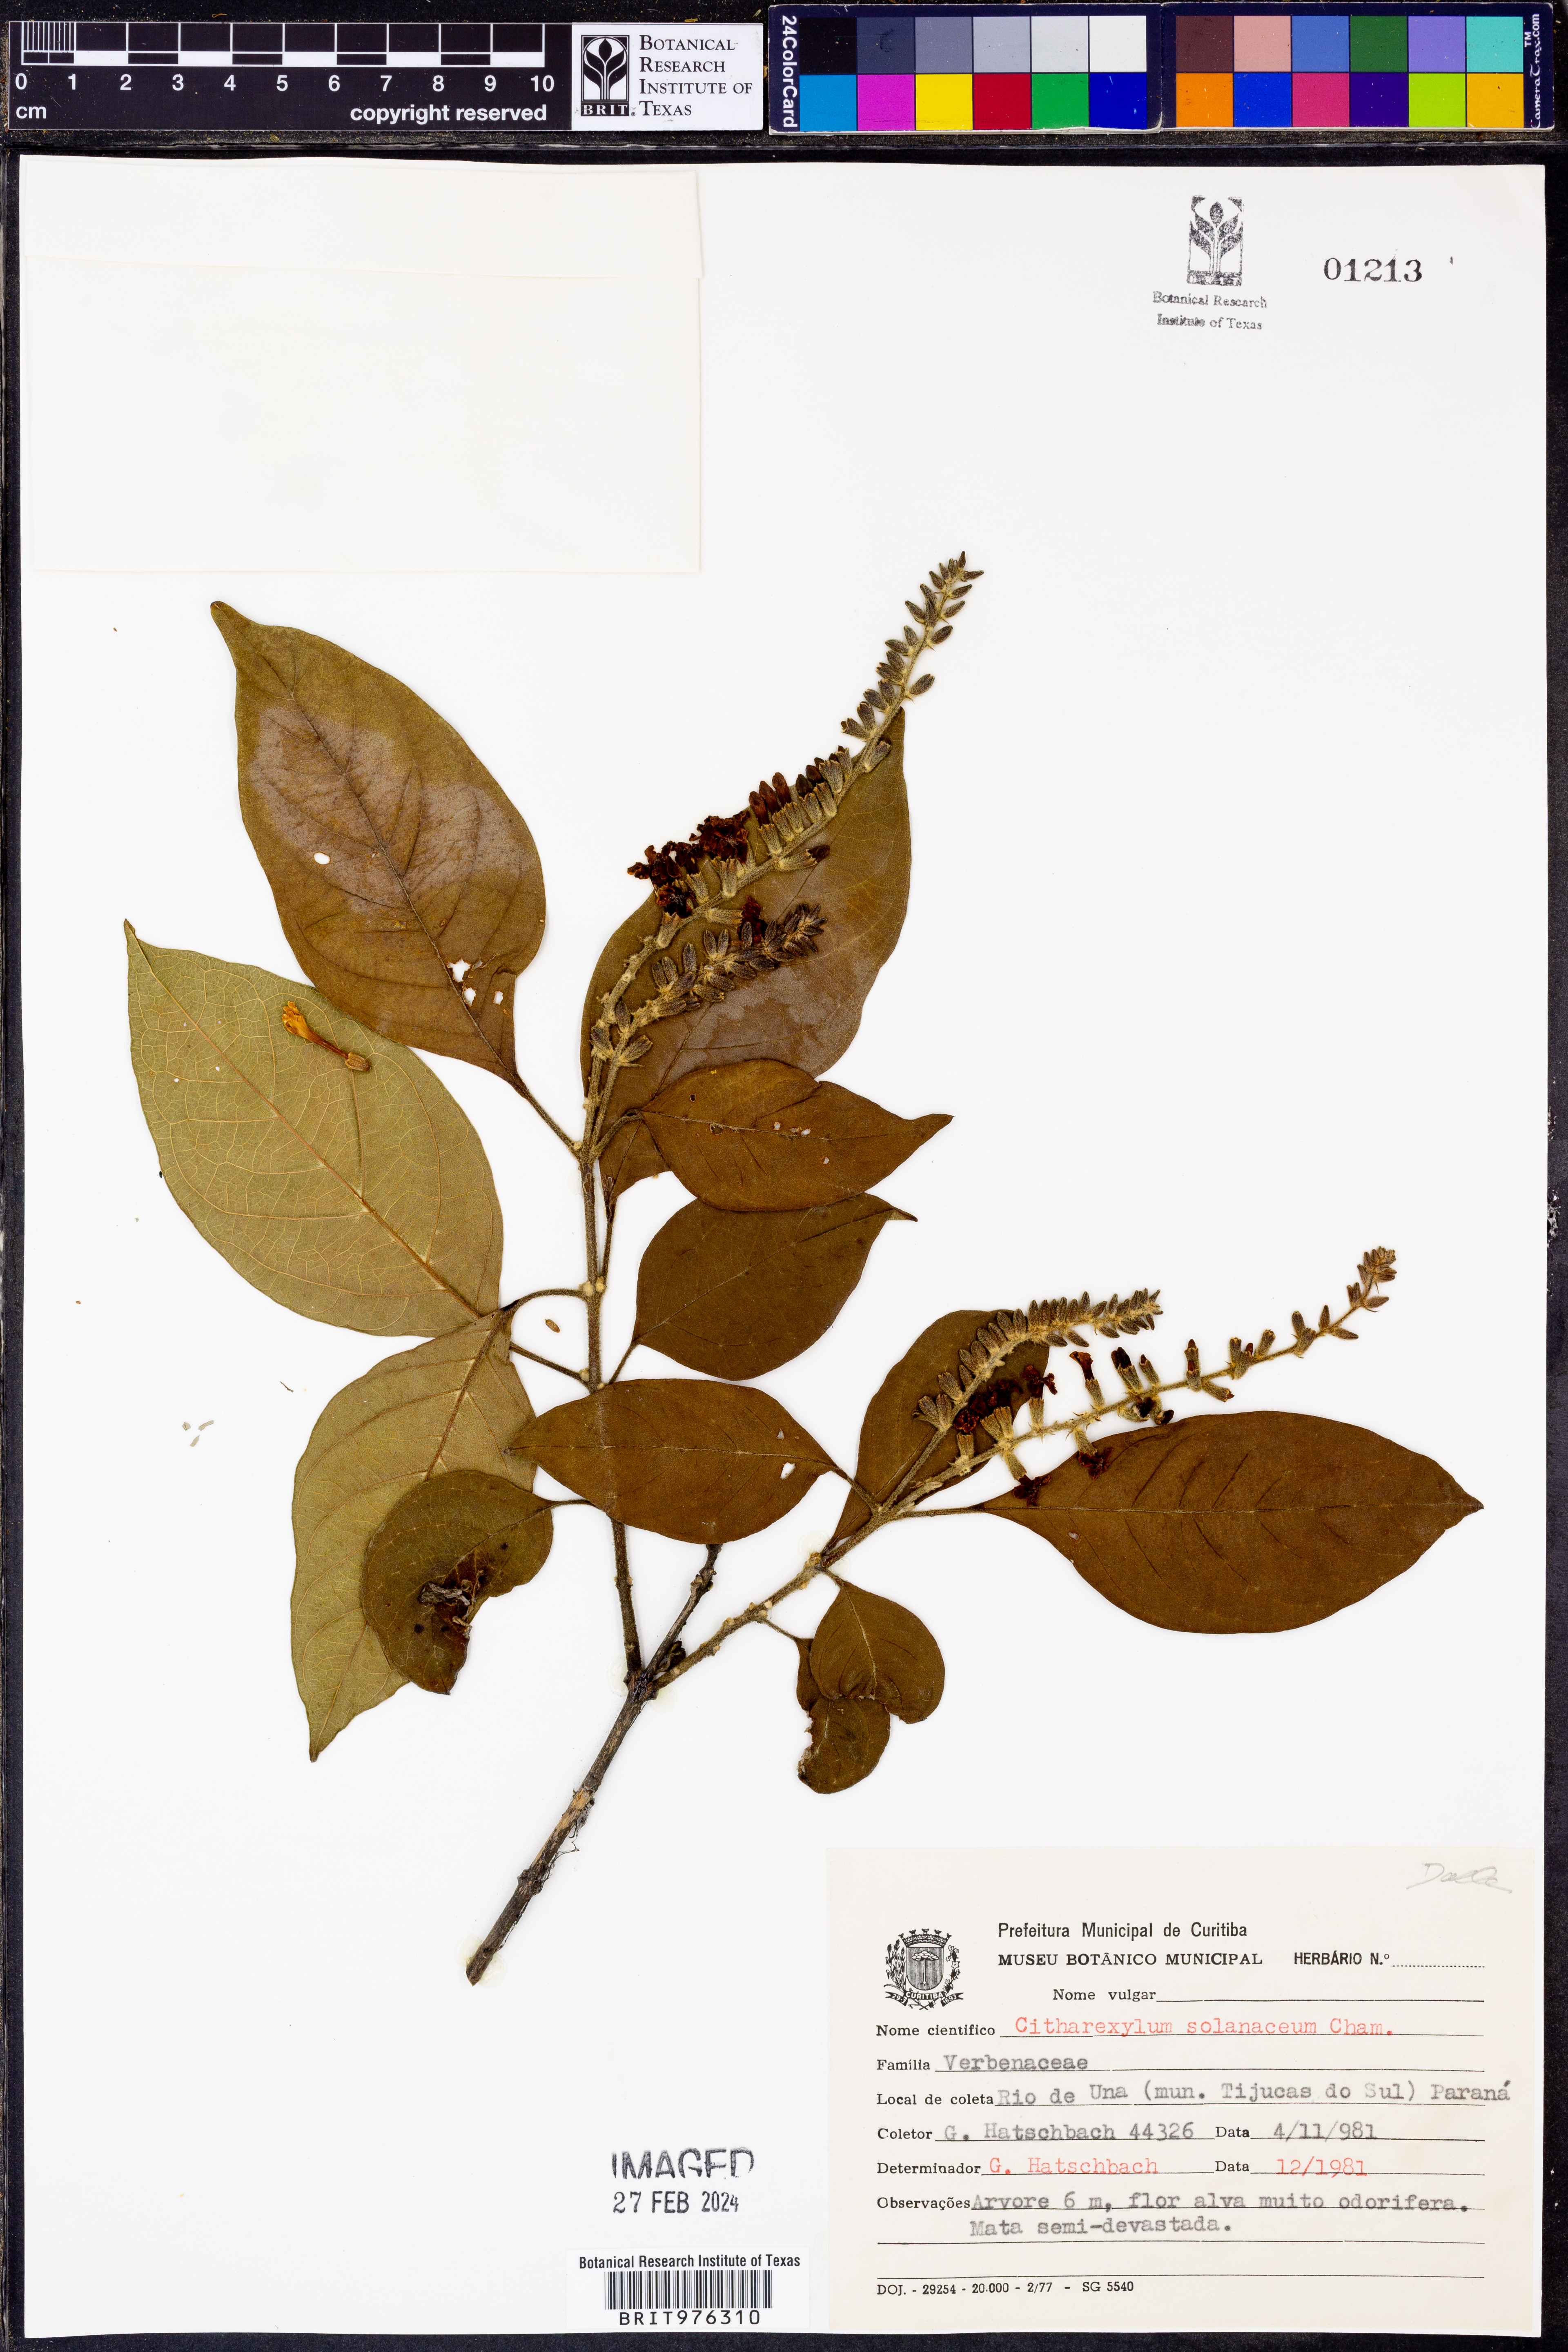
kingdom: Plantae
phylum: Tracheophyta
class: Magnoliopsida
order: Lamiales
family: Verbenaceae
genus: Citharexylum
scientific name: Citharexylum
